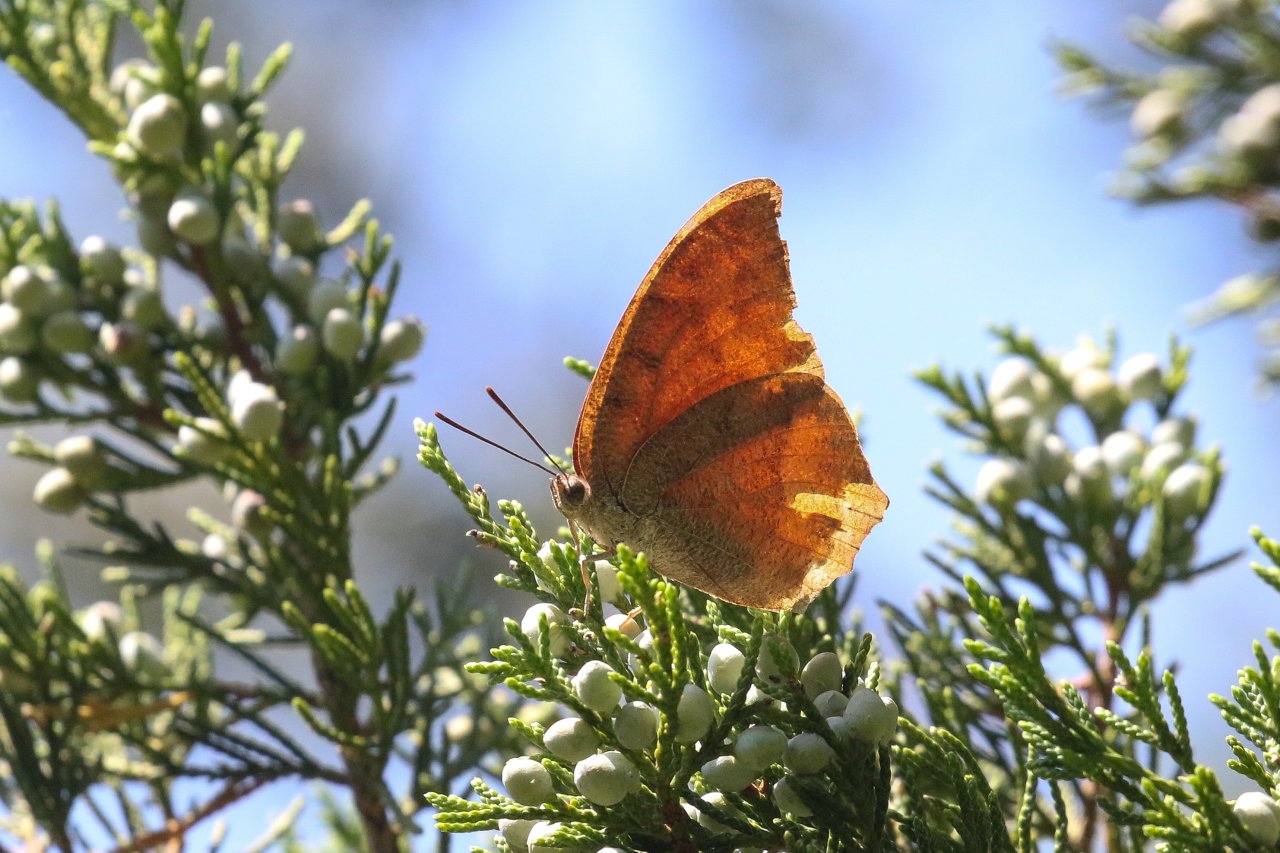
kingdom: Animalia
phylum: Arthropoda
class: Insecta
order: Lepidoptera
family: Nymphalidae
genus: Anaea
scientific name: Anaea andria
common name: Goatweed Leafwing
